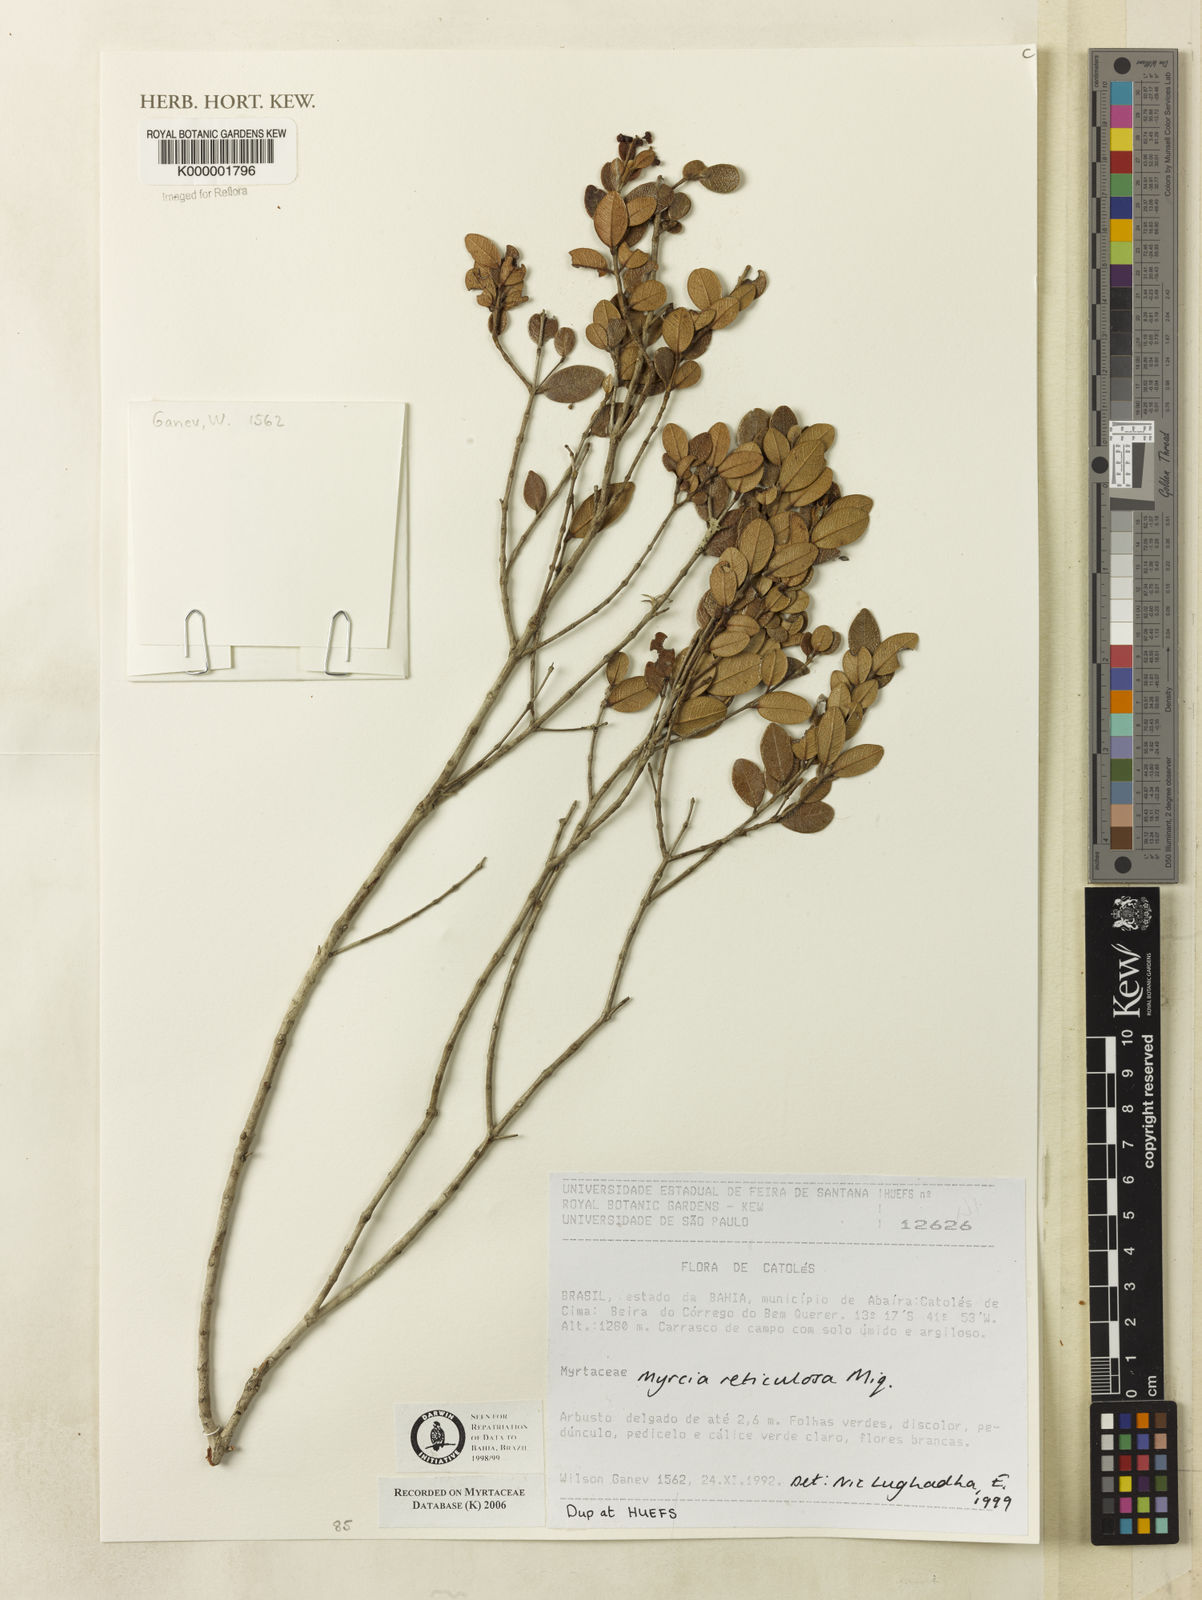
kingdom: Plantae
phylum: Tracheophyta
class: Magnoliopsida
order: Myrtales
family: Myrtaceae
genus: Myrcia
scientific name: Myrcia reticulosa
